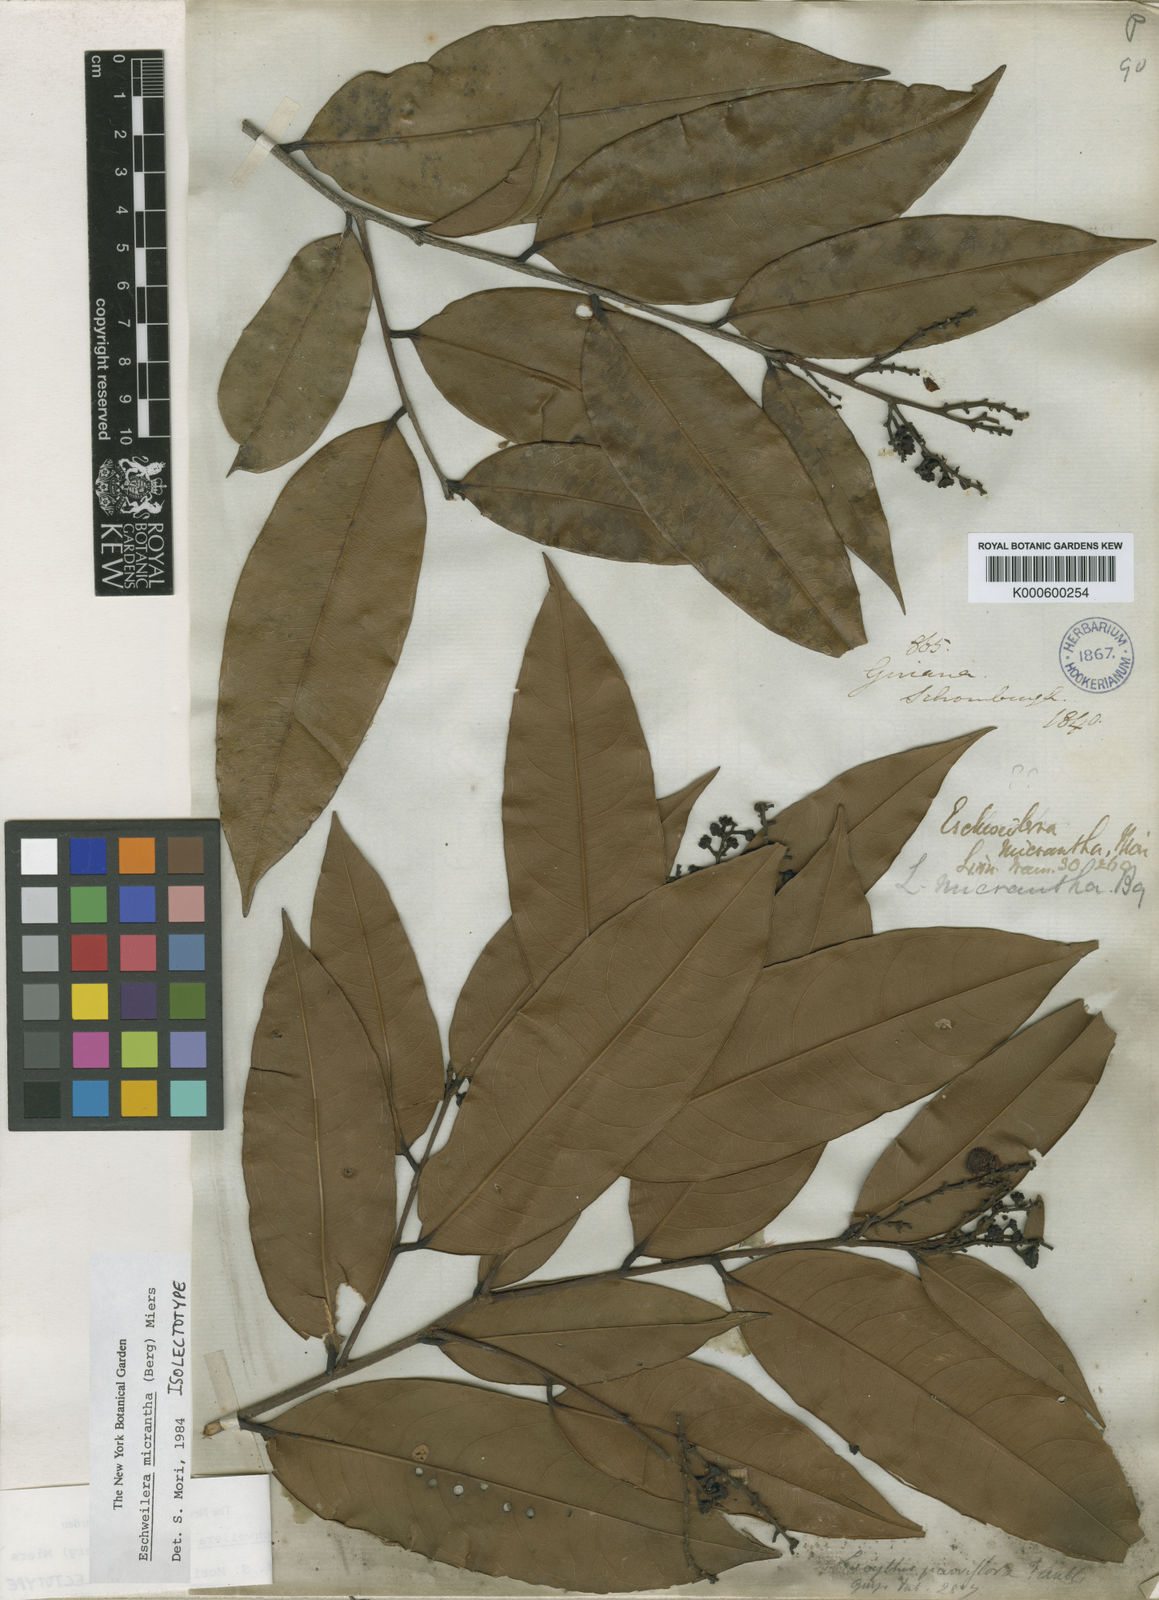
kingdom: Plantae
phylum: Tracheophyta
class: Magnoliopsida
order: Ericales
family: Lecythidaceae
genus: Eschweilera
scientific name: Eschweilera micrantha
